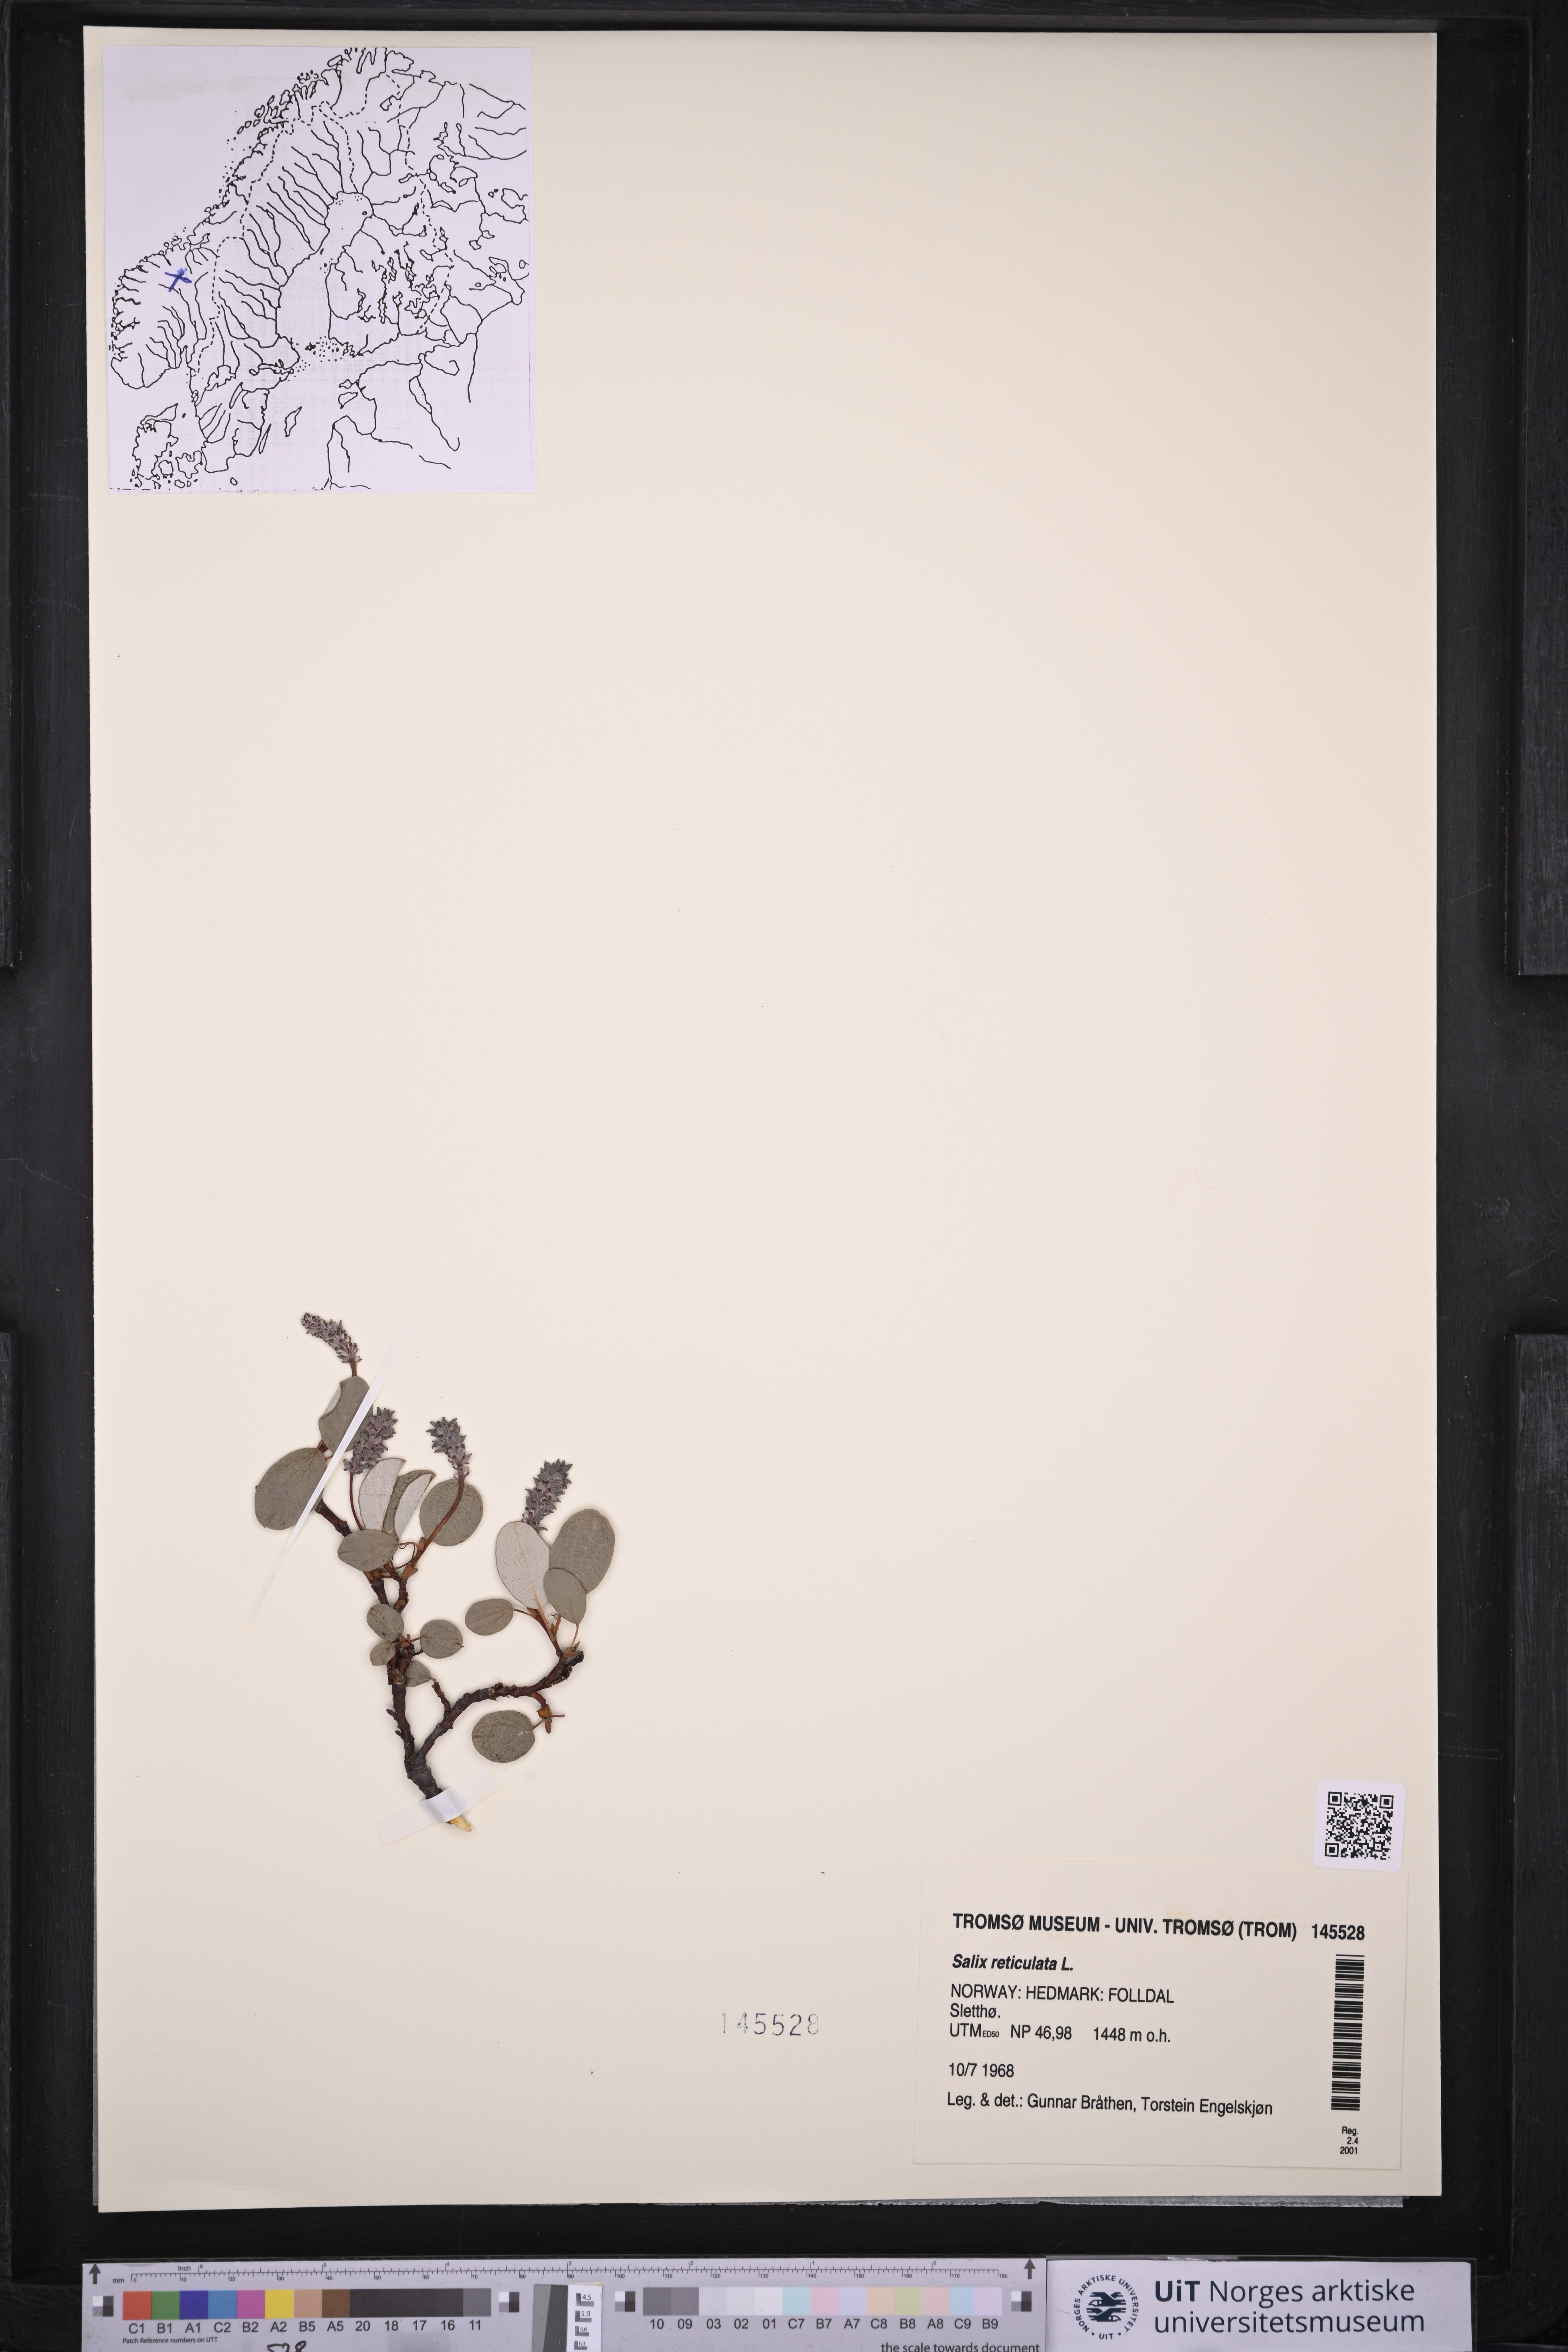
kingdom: Plantae
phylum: Tracheophyta
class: Magnoliopsida
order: Malpighiales
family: Salicaceae
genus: Salix
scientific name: Salix reticulata
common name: Net-leaved willow
